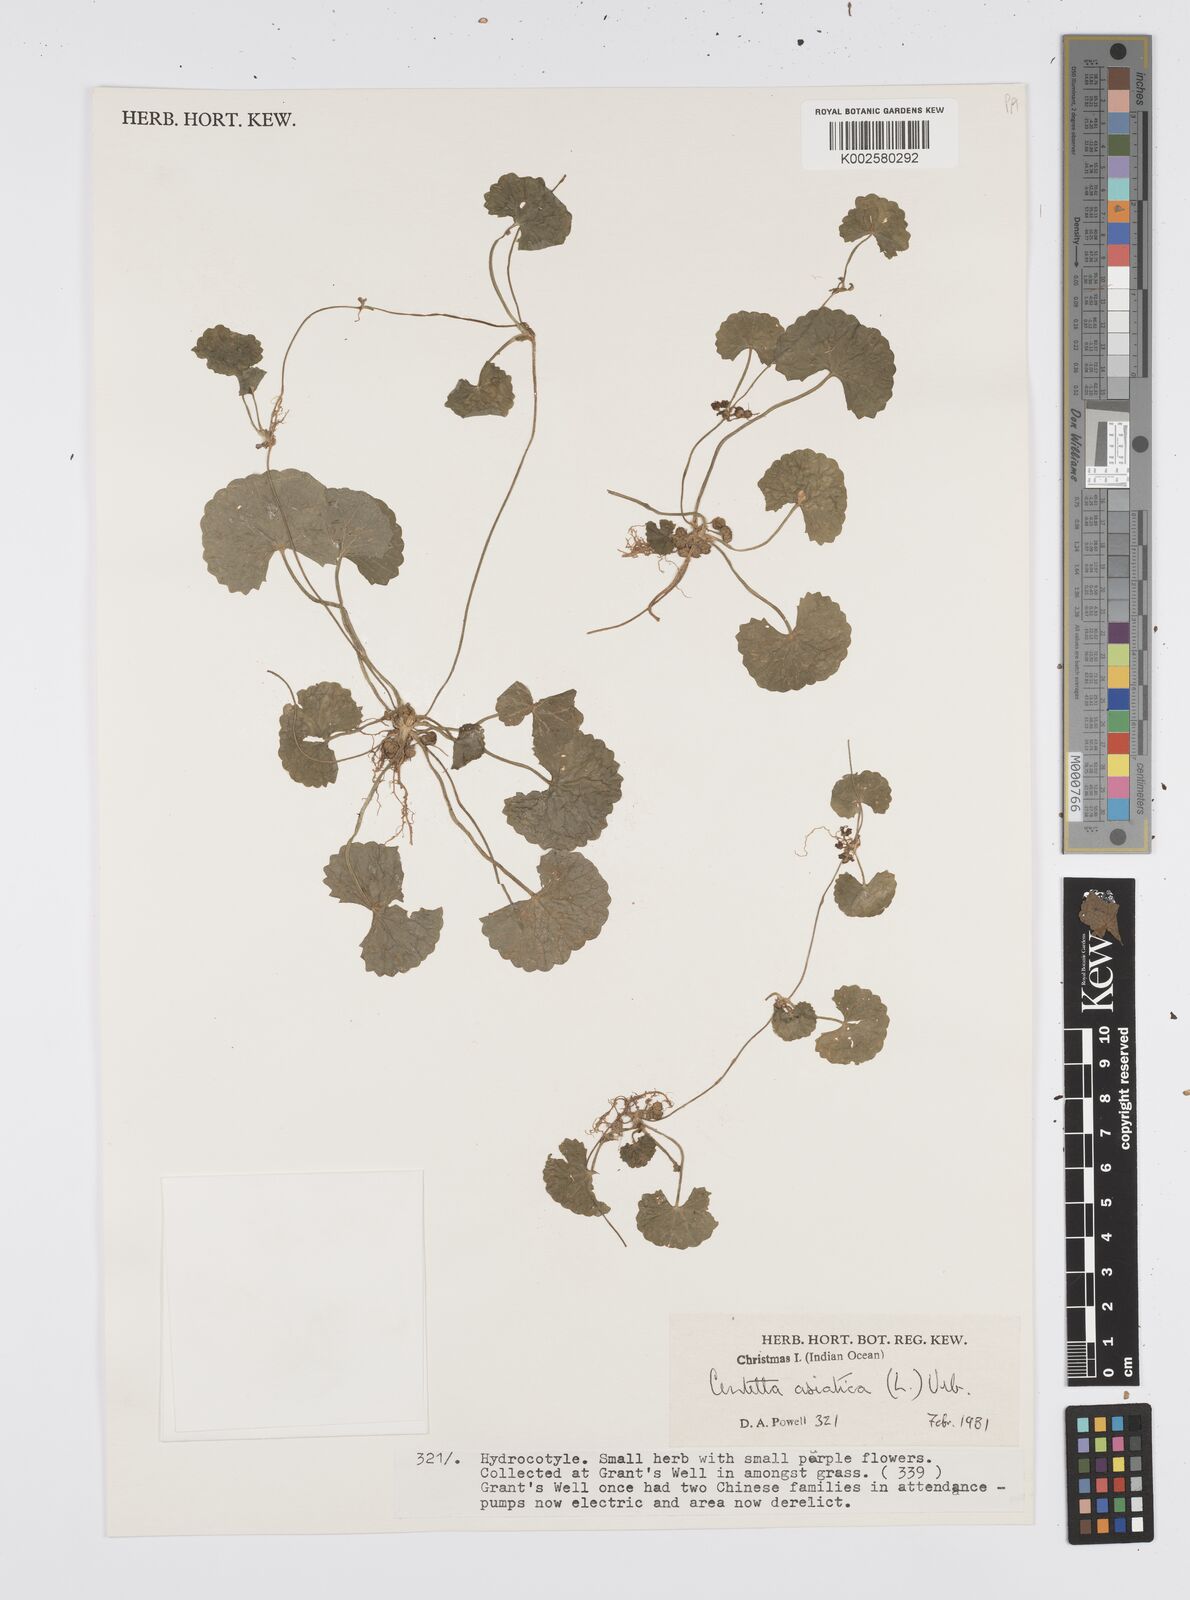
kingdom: Plantae
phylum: Tracheophyta
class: Magnoliopsida
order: Apiales
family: Apiaceae
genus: Centella
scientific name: Centella asiatica
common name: Spadeleaf
